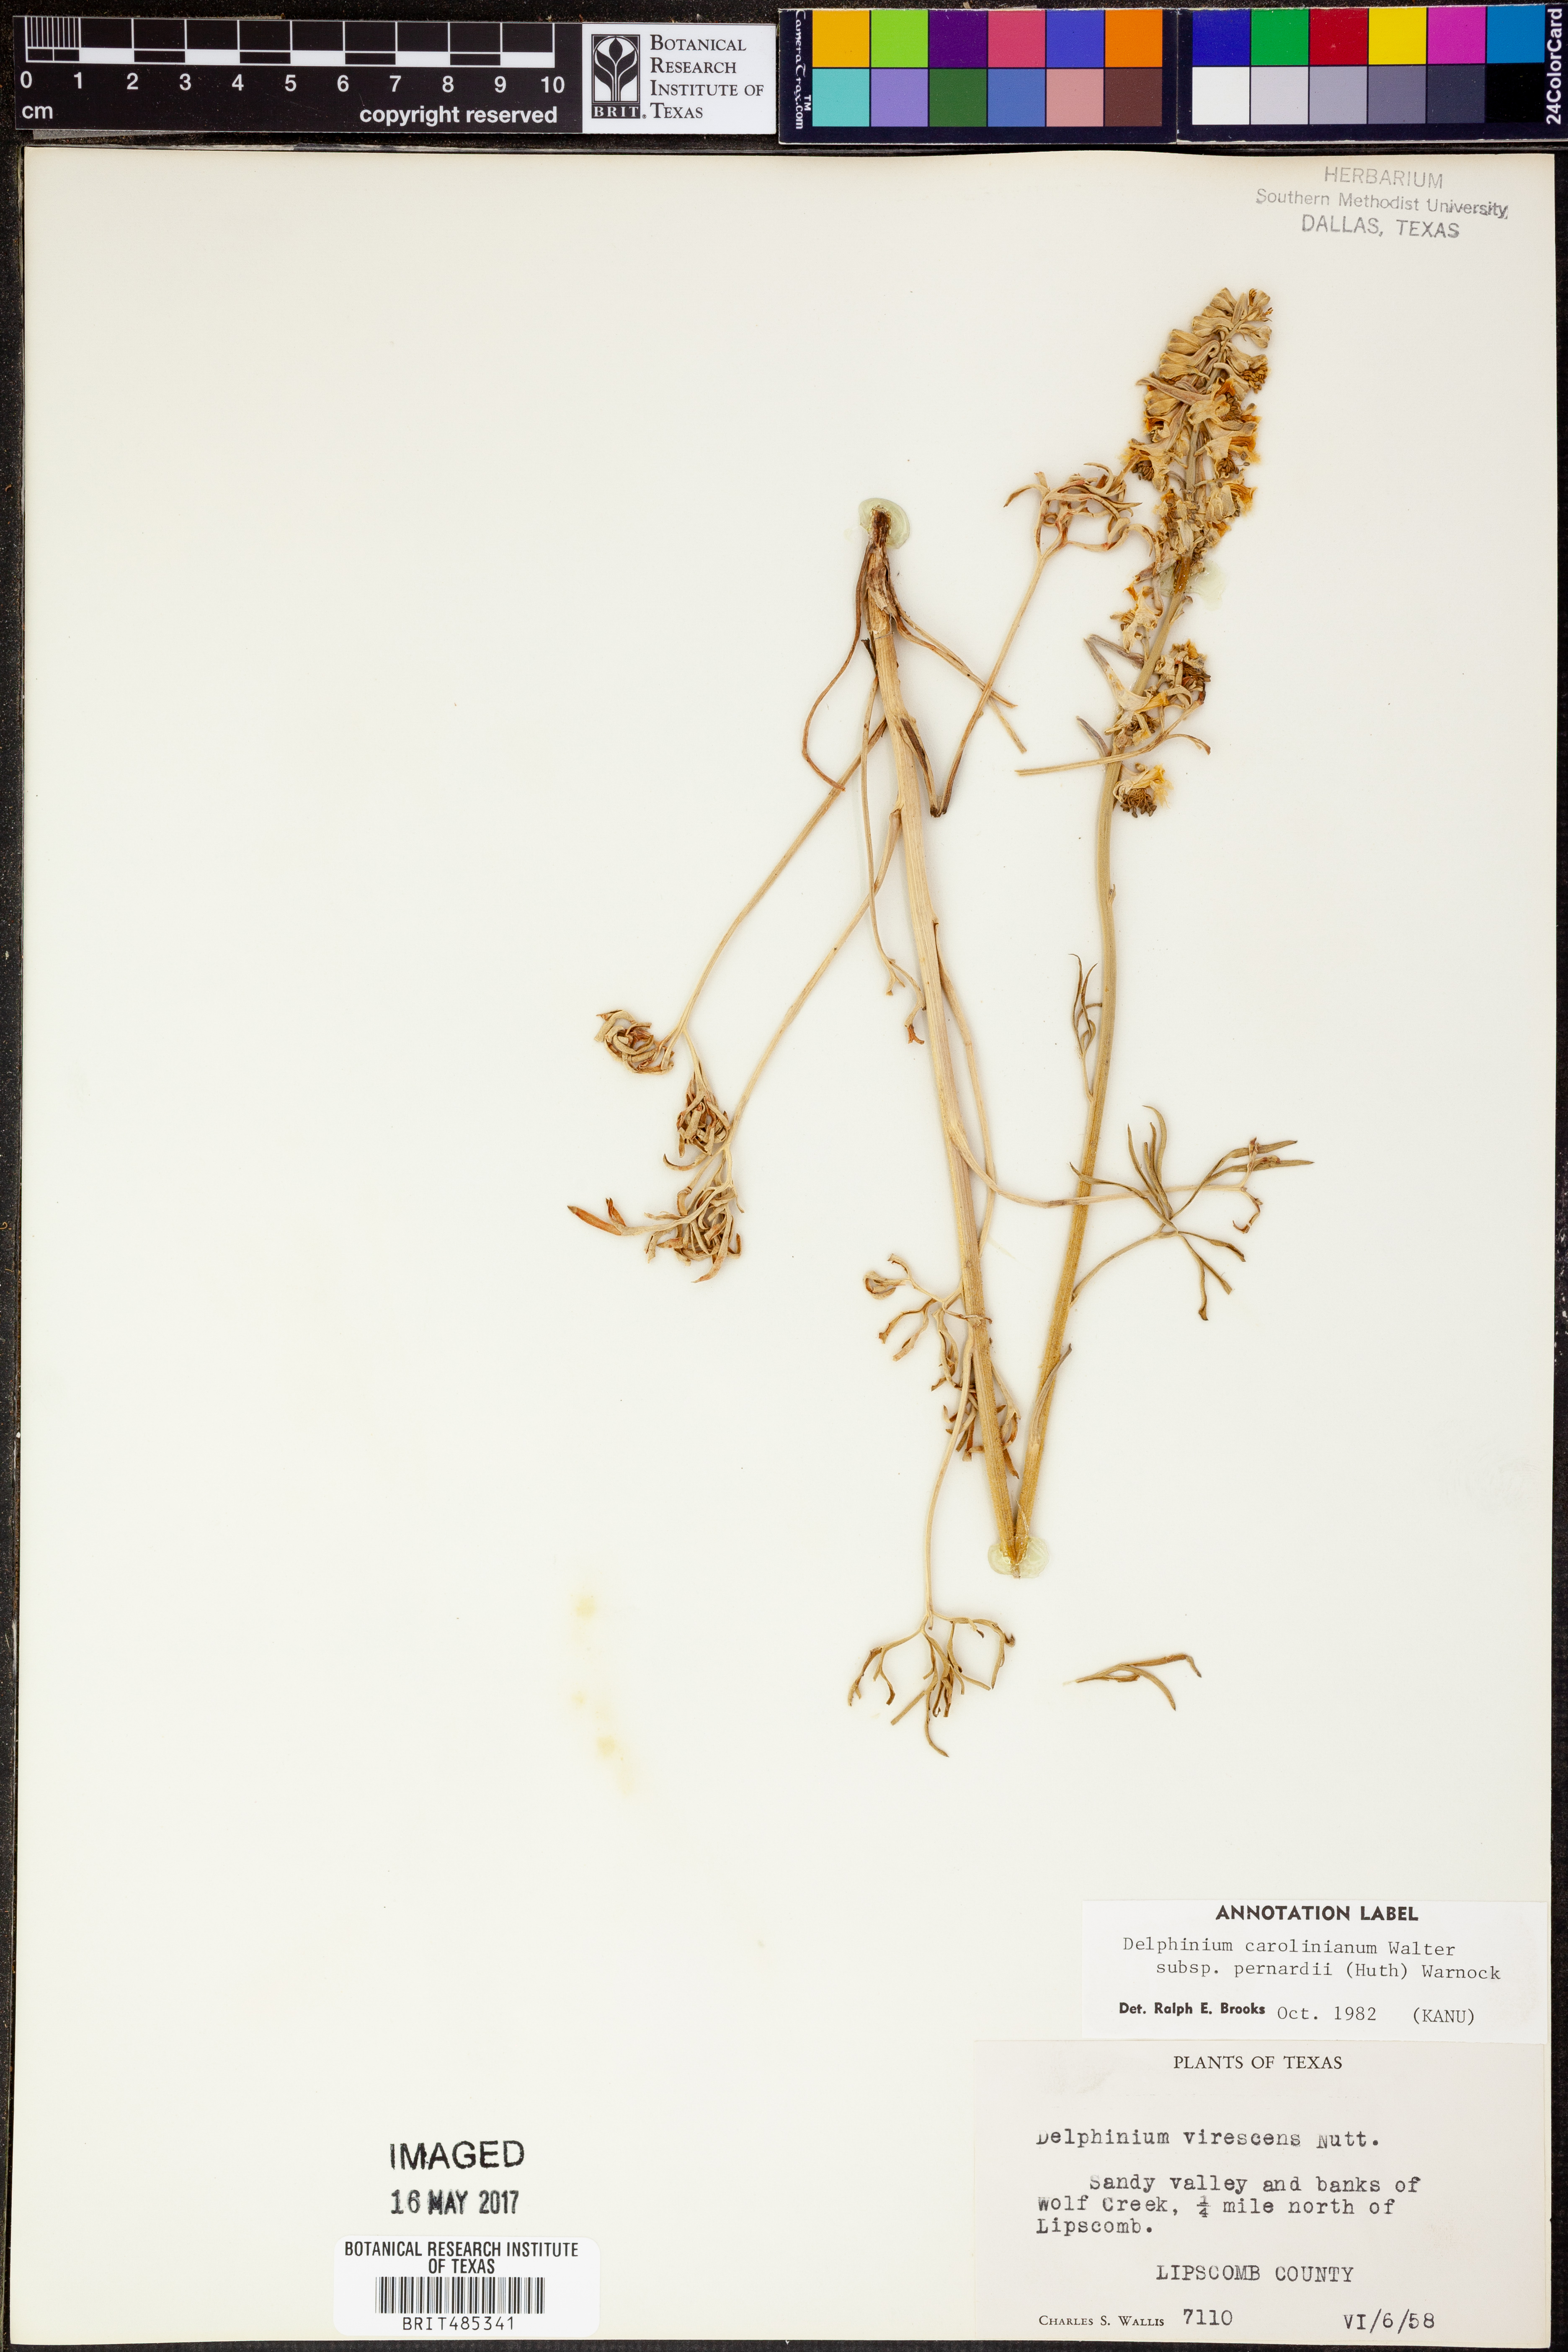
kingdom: Plantae
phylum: Tracheophyta
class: Magnoliopsida
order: Ranunculales
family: Ranunculaceae
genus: Delphinium
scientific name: Delphinium carolinianum
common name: Carolina larkspur
